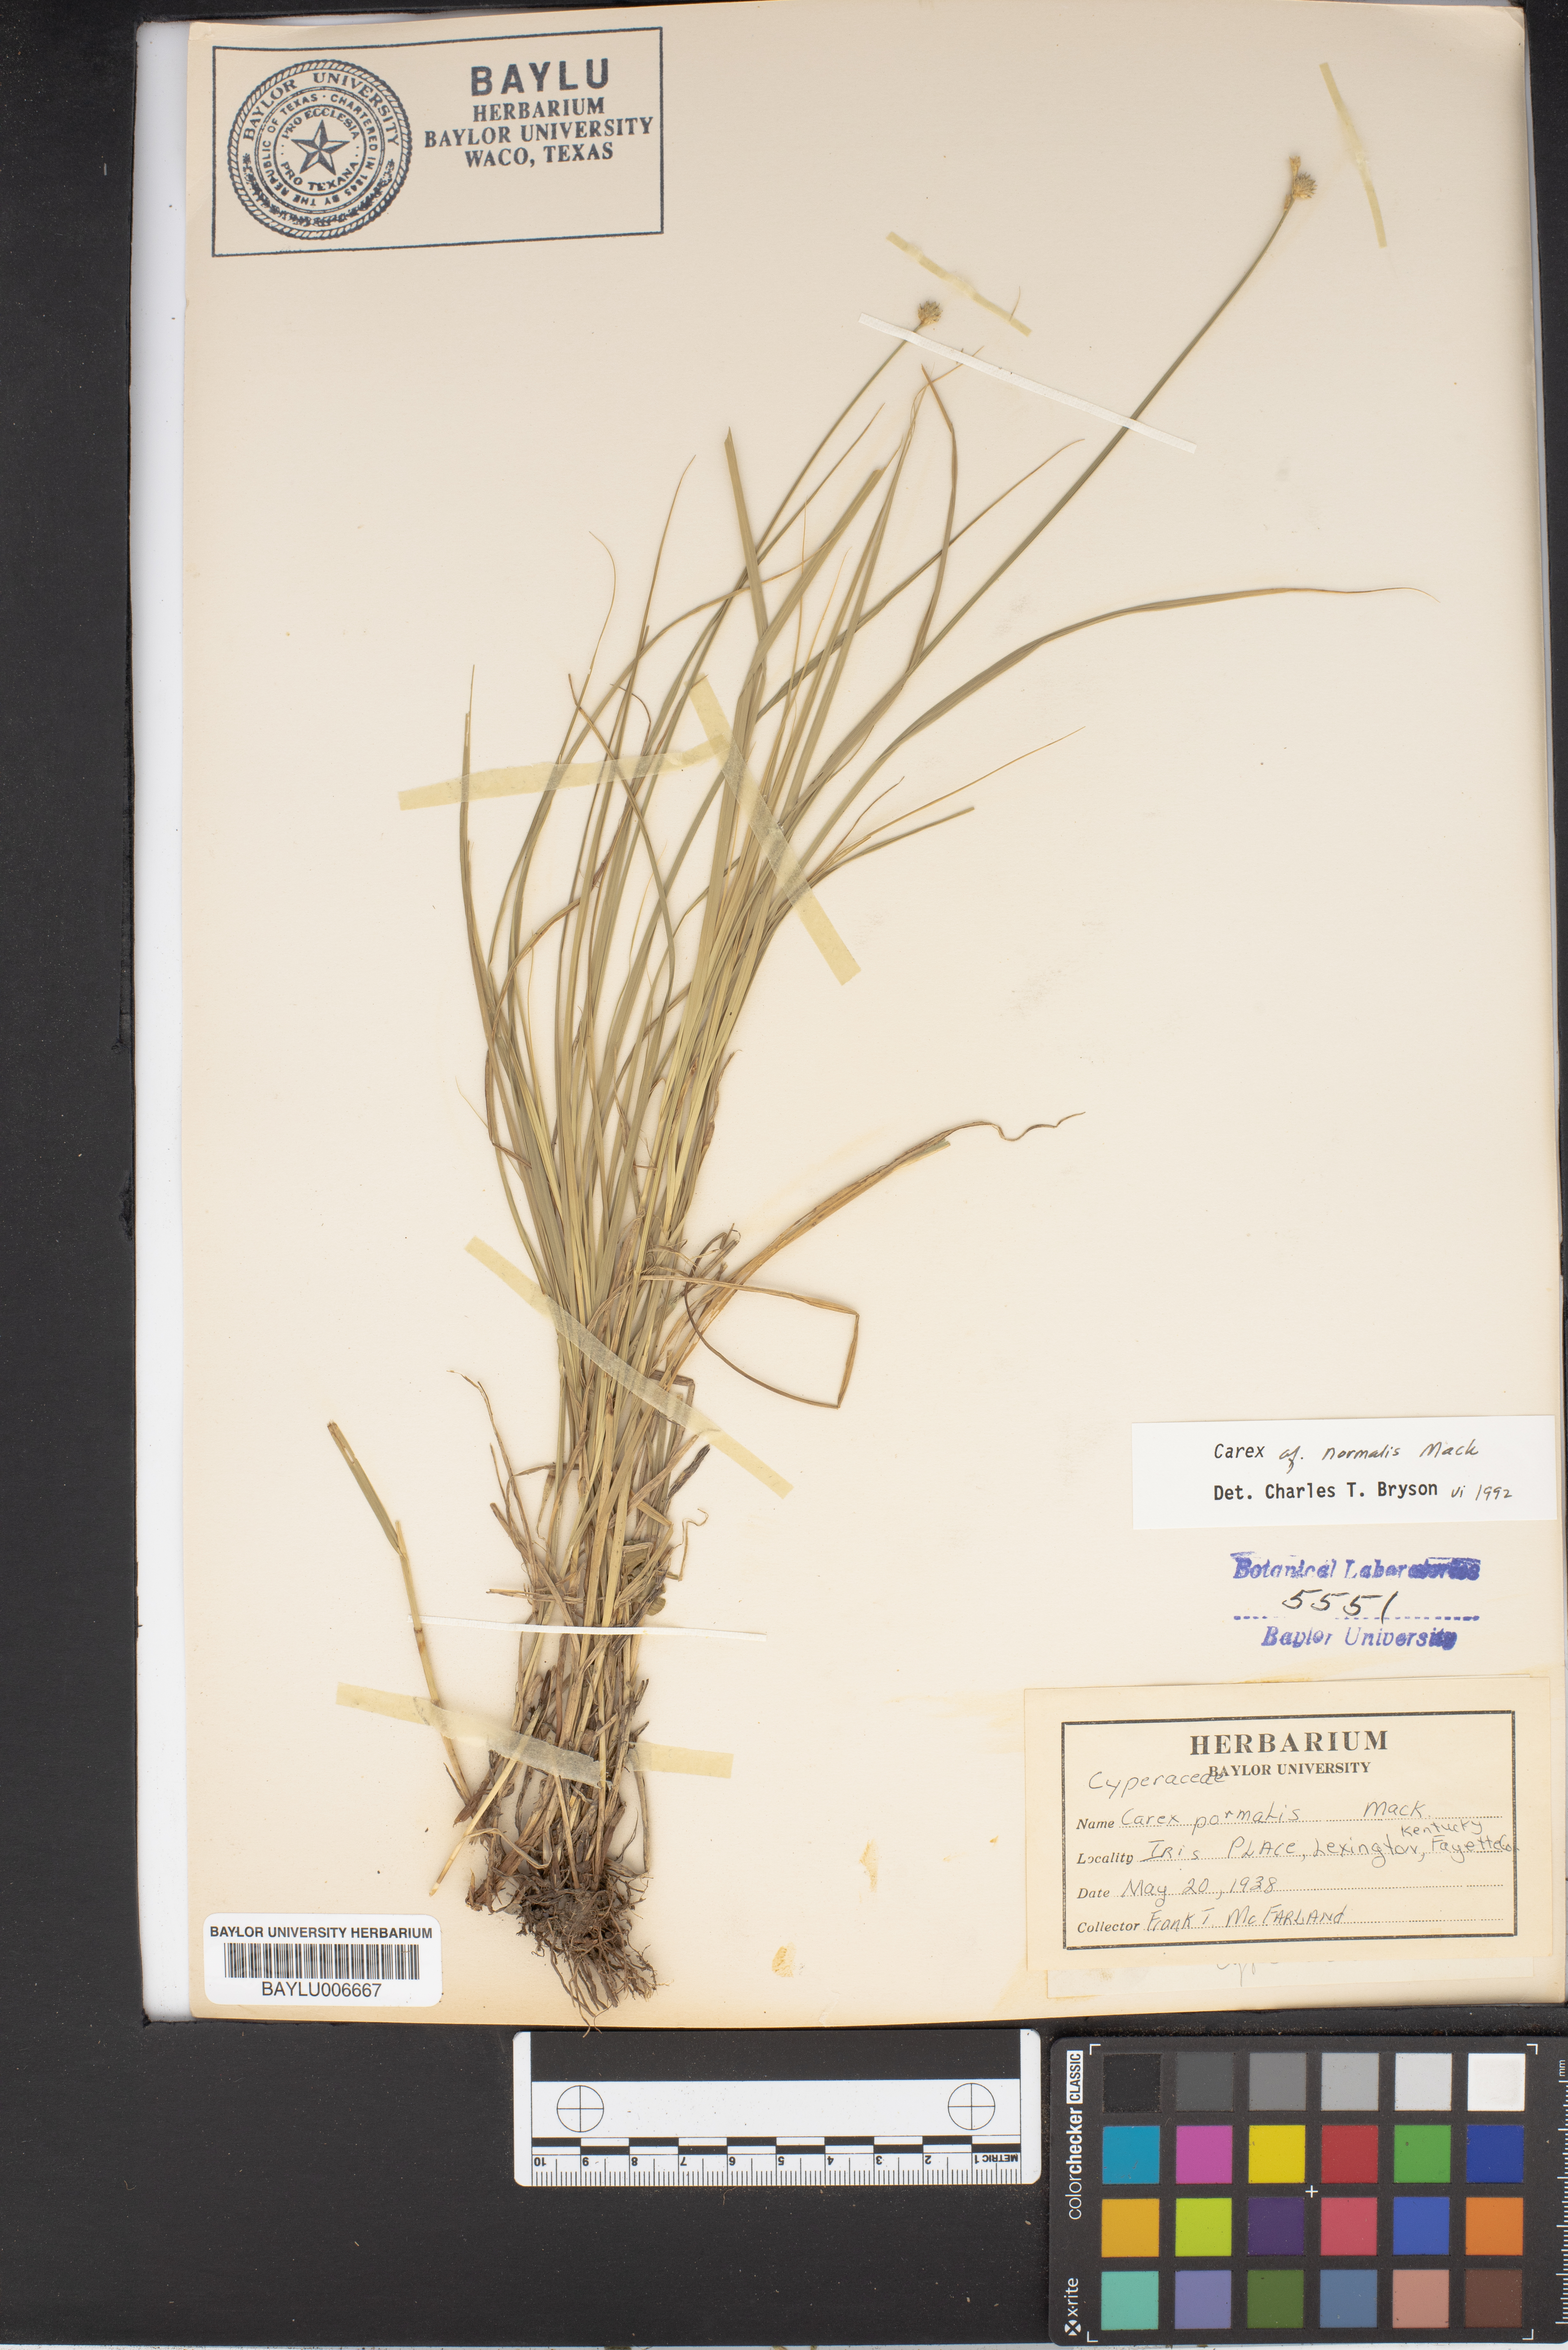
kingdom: Plantae
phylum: Tracheophyta
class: Liliopsida
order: Poales
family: Cyperaceae
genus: Carex
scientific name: Carex normalis
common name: Greater straw sedge
